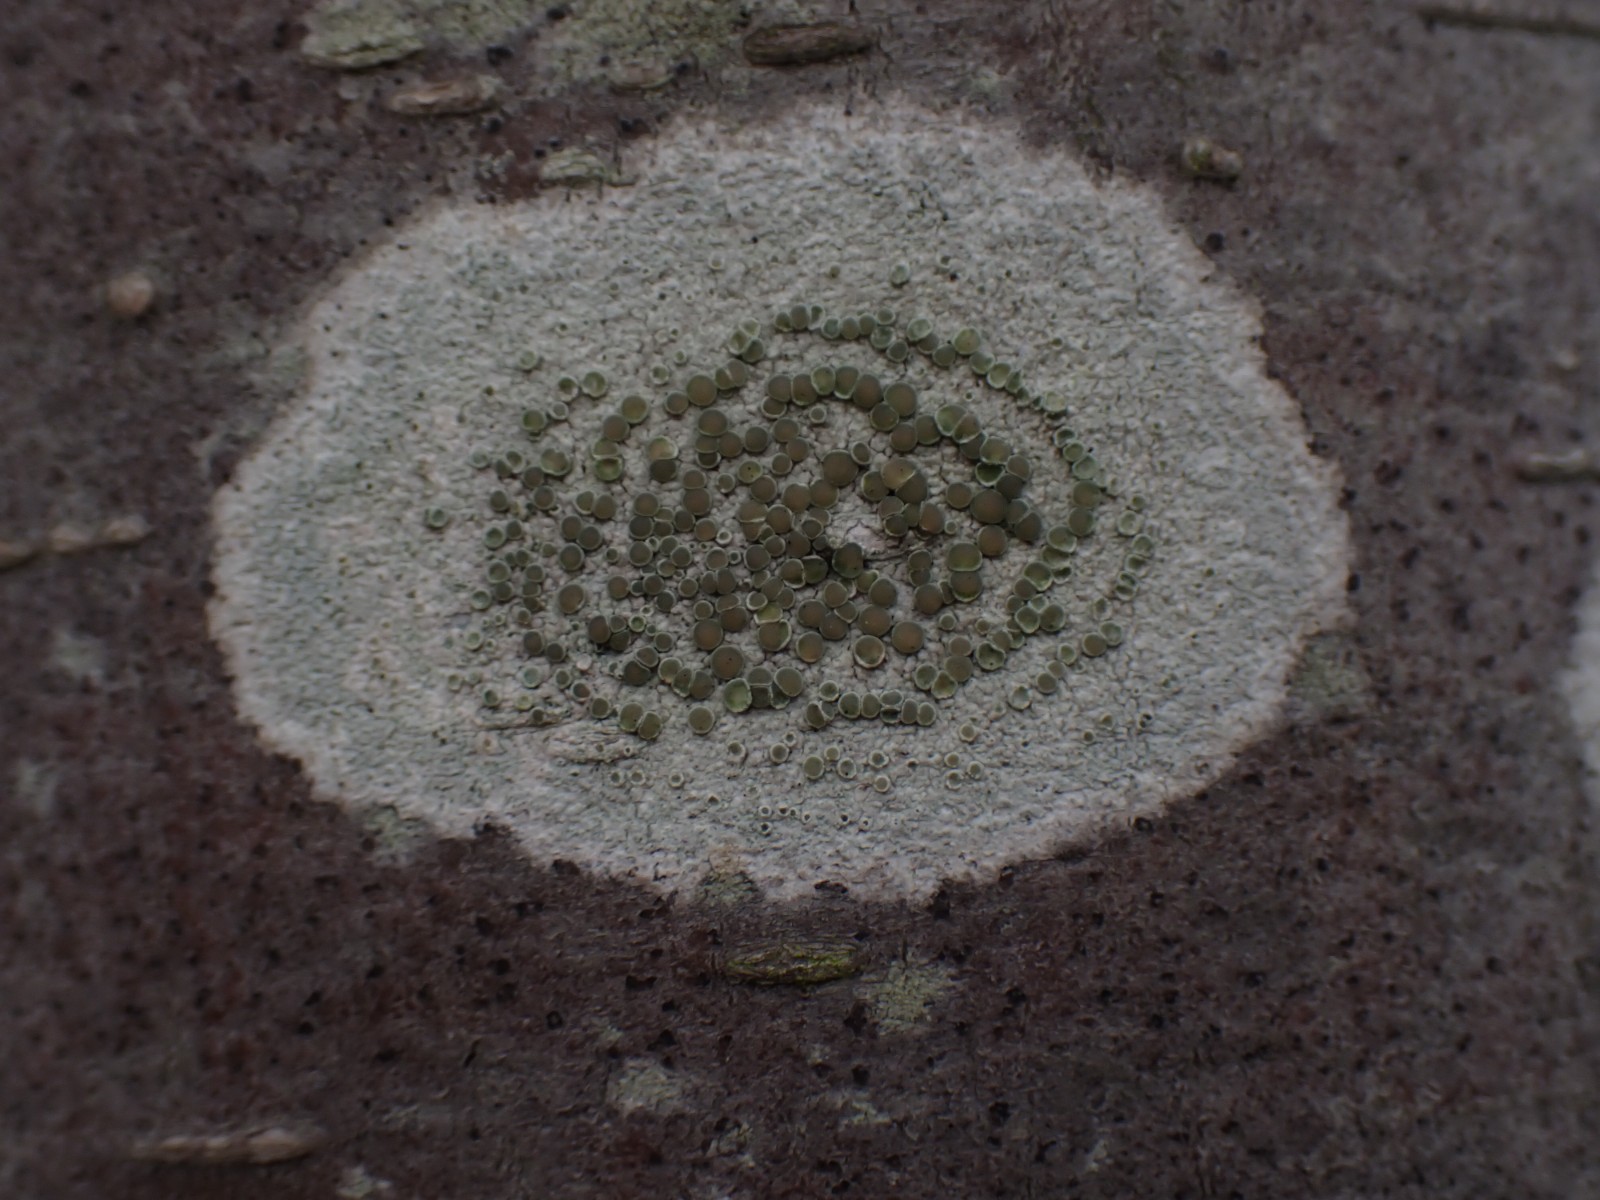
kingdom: Fungi
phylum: Ascomycota
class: Lecanoromycetes
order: Lecanorales
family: Lecanoraceae
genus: Lecanora
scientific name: Lecanora chlarotera
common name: brun kantskivelav
